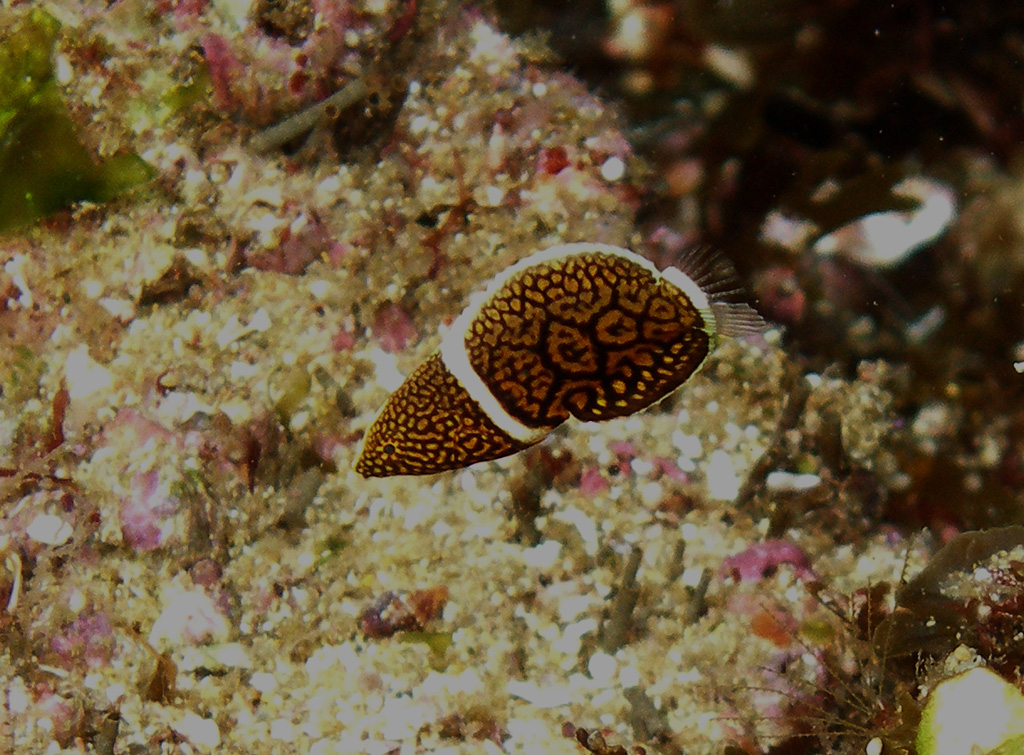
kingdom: Animalia
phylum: Chordata
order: Perciformes
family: Labridae
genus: Anampses
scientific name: Anampses lineatus
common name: Lined wrasse
